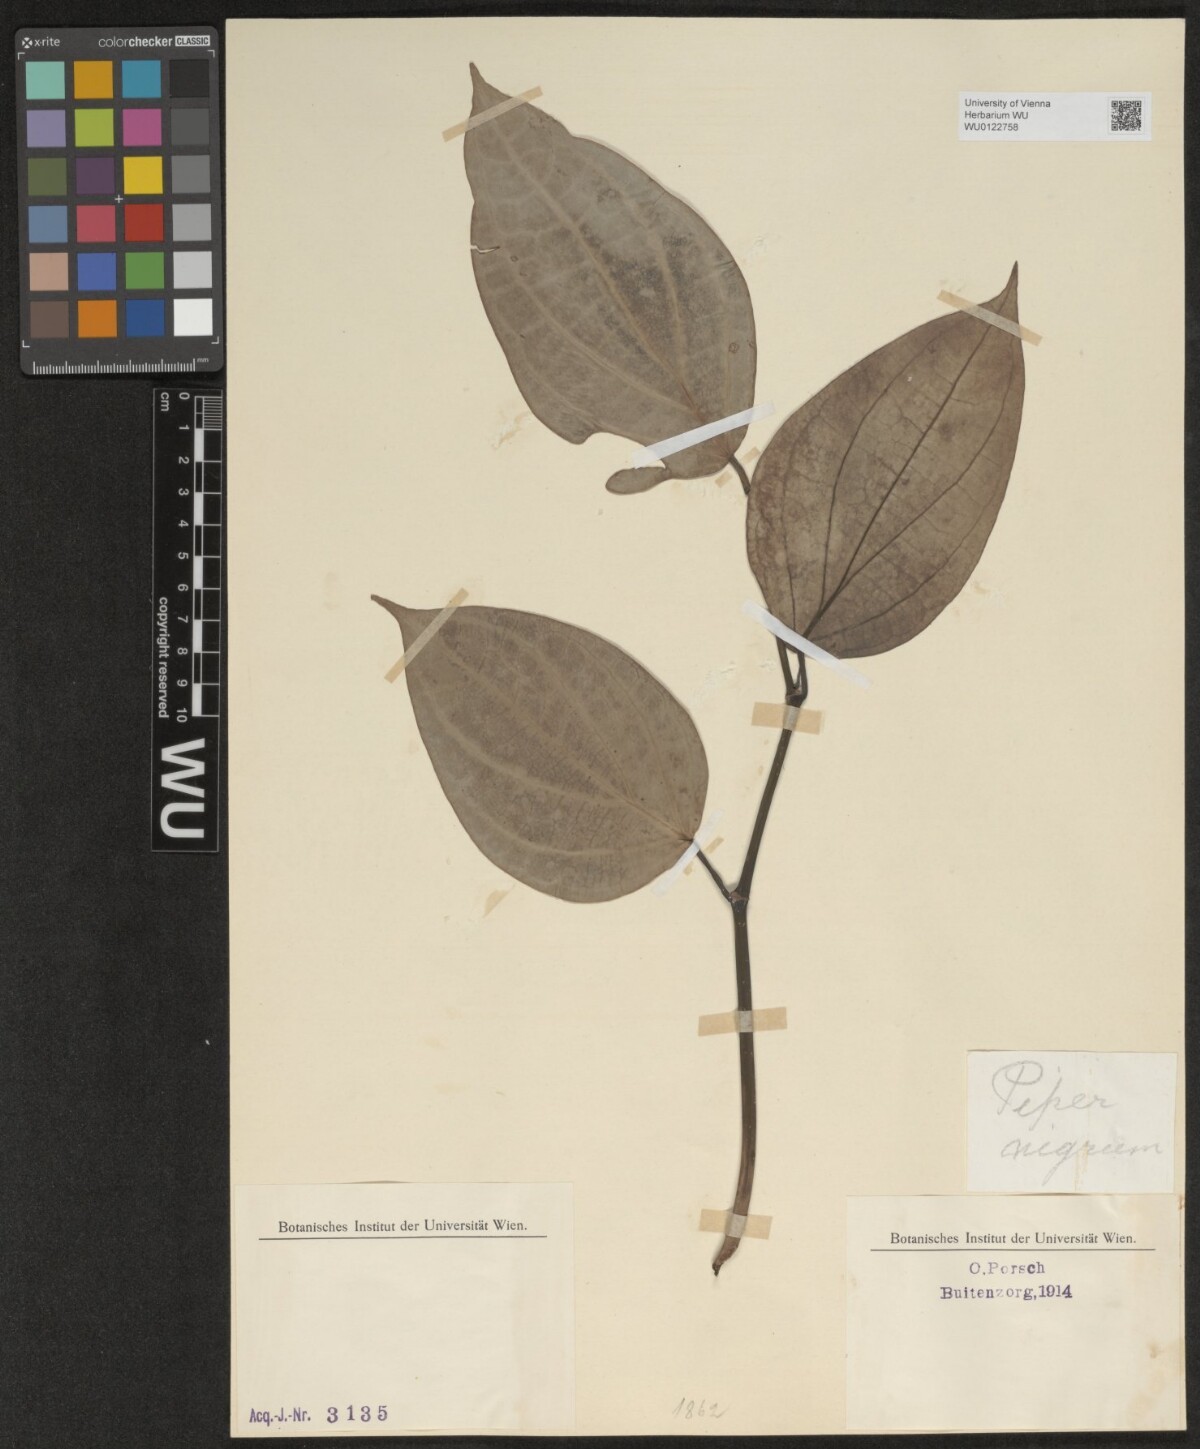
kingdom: Plantae
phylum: Tracheophyta
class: Magnoliopsida
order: Piperales
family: Piperaceae
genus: Piper
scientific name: Piper nigrum
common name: Black pepper
